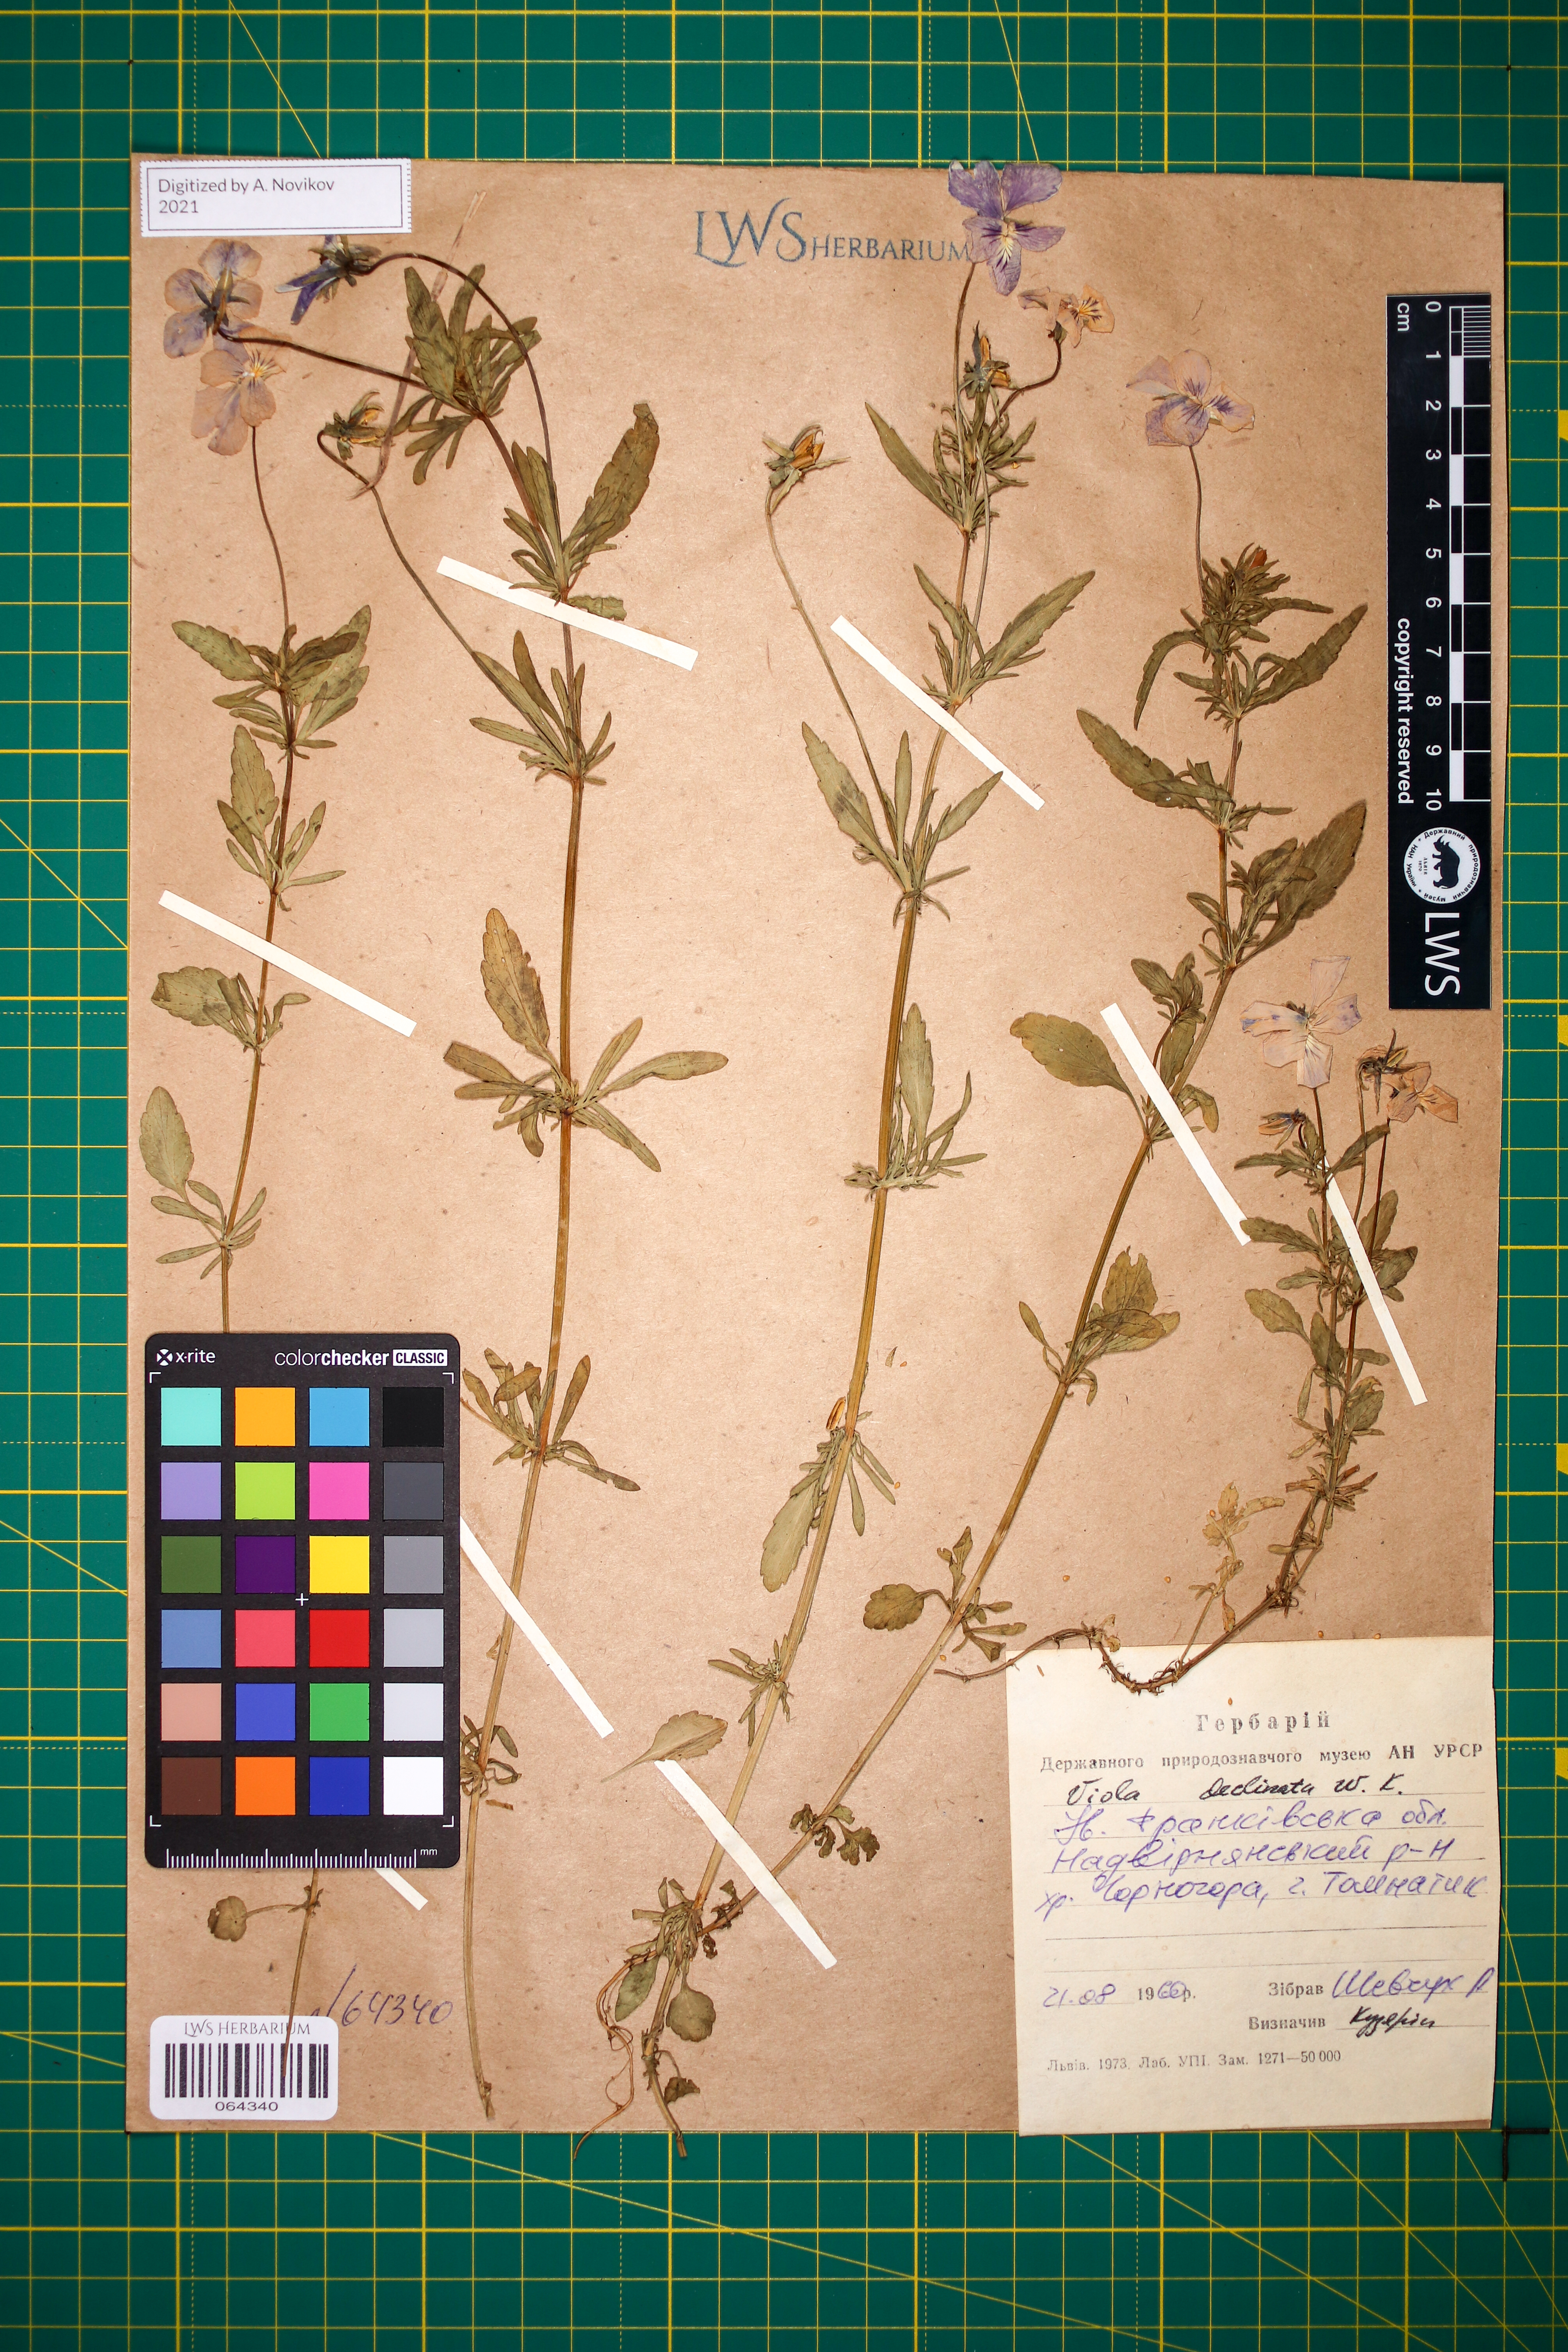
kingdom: Plantae
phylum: Tracheophyta
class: Magnoliopsida
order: Malpighiales
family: Violaceae
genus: Viola
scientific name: Viola declinata
